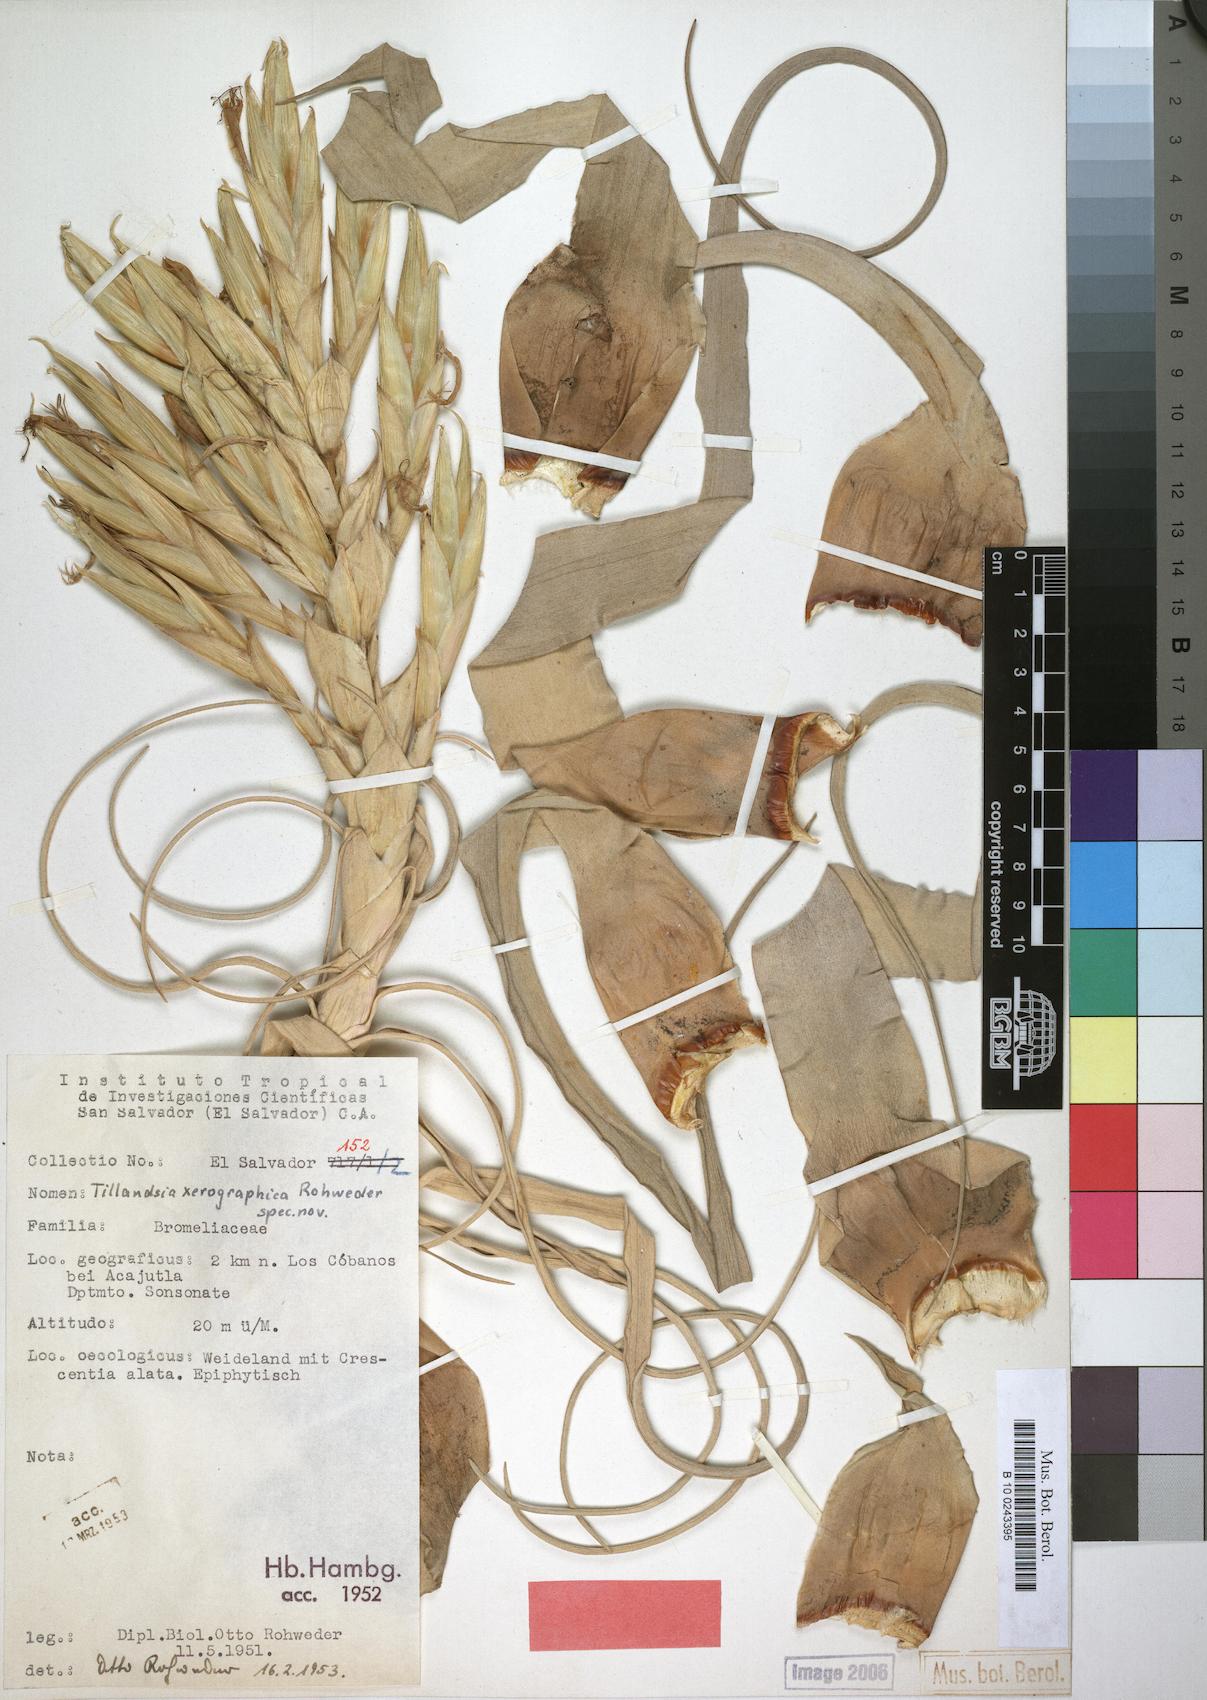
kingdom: Plantae
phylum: Tracheophyta
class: Liliopsida
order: Poales
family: Bromeliaceae
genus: Tillandsia
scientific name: Tillandsia xerographica
